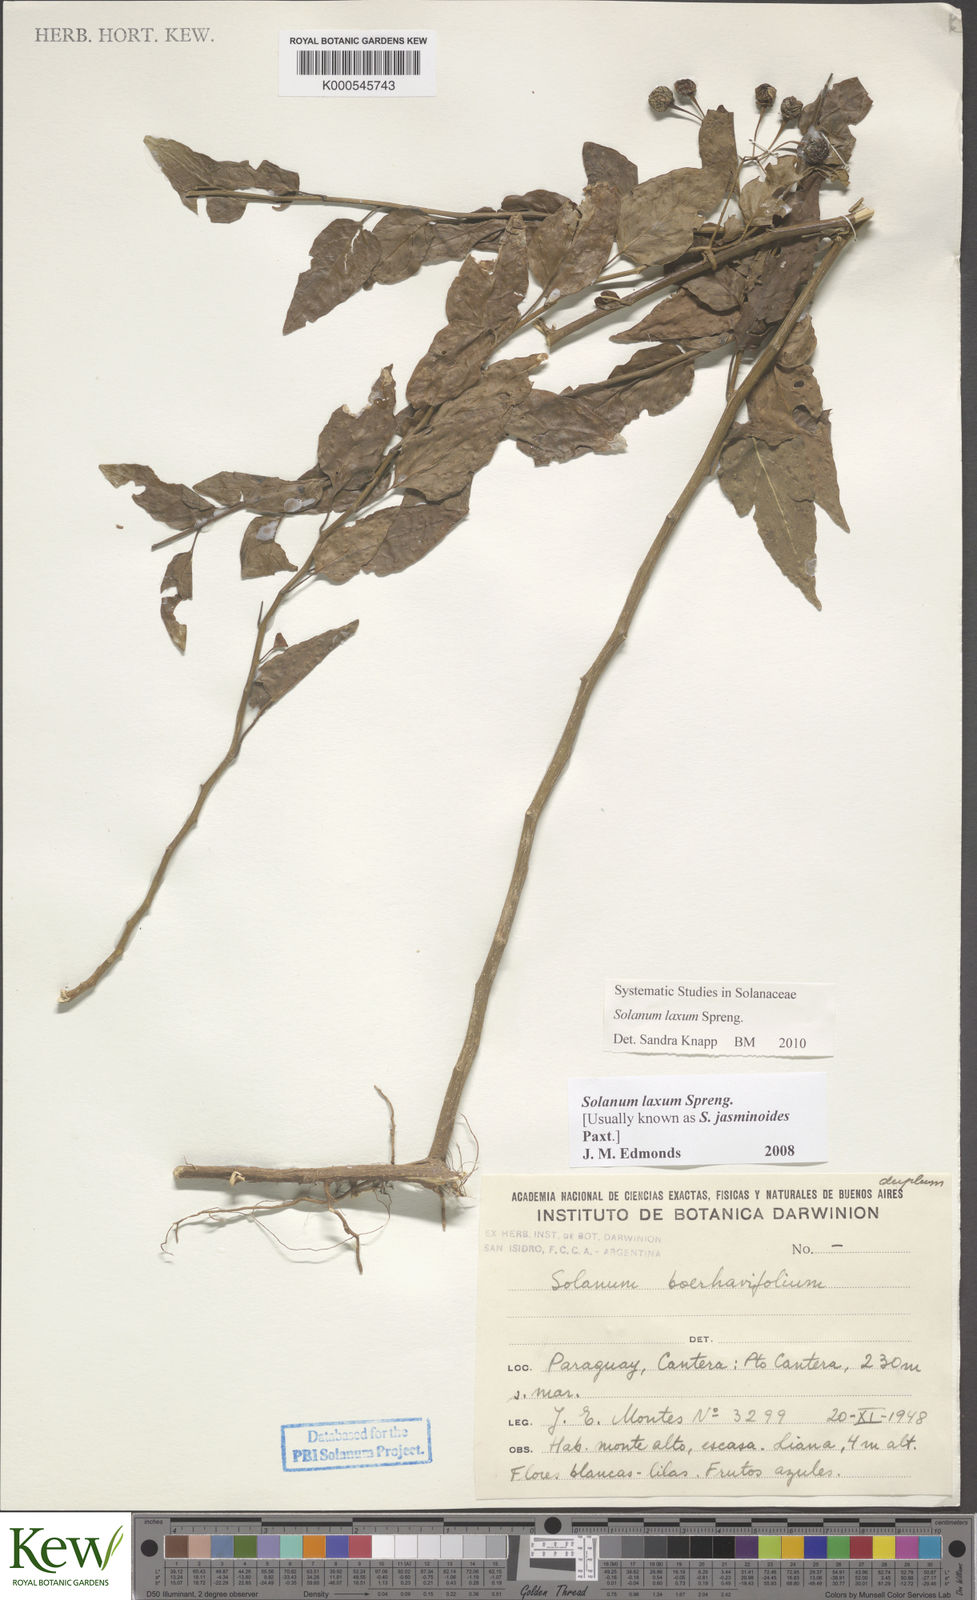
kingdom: Plantae
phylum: Tracheophyta
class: Magnoliopsida
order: Solanales
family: Solanaceae
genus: Solanum
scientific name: Solanum laxum
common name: Nightshade
